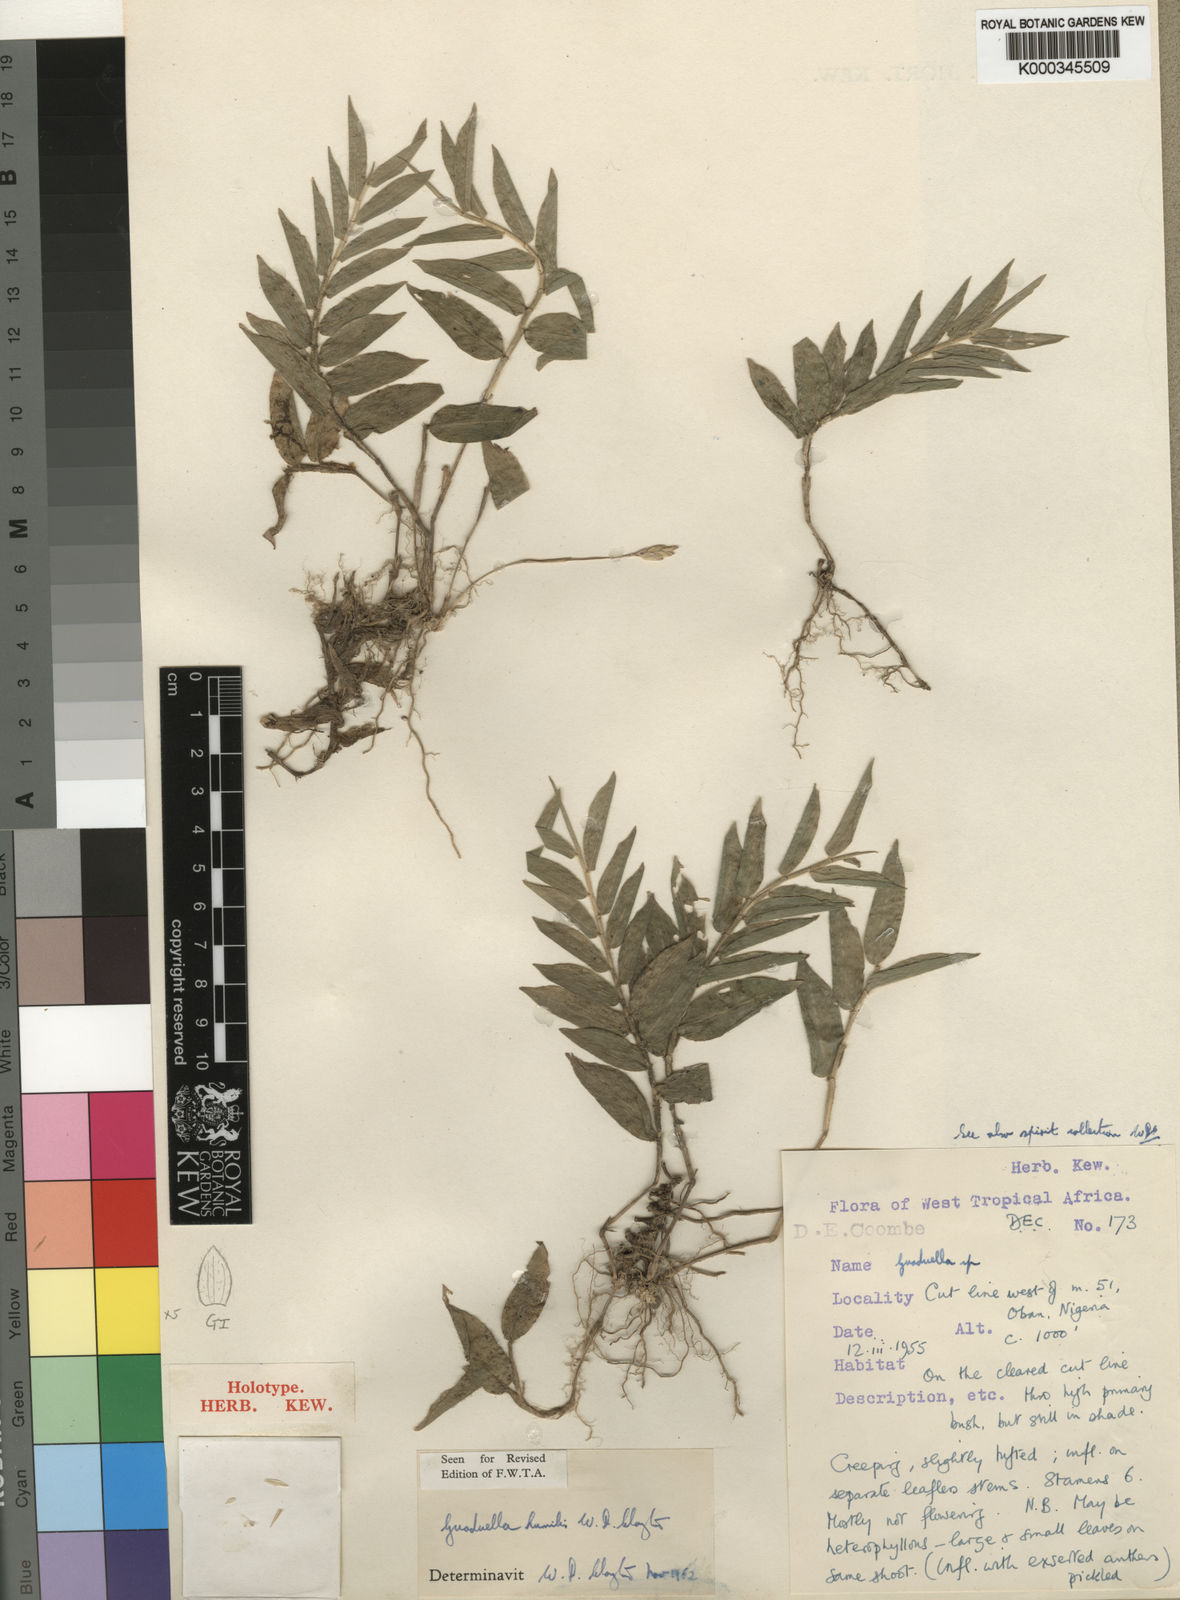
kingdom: Plantae
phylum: Tracheophyta
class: Liliopsida
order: Poales
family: Poaceae
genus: Guaduella
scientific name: Guaduella humilis
